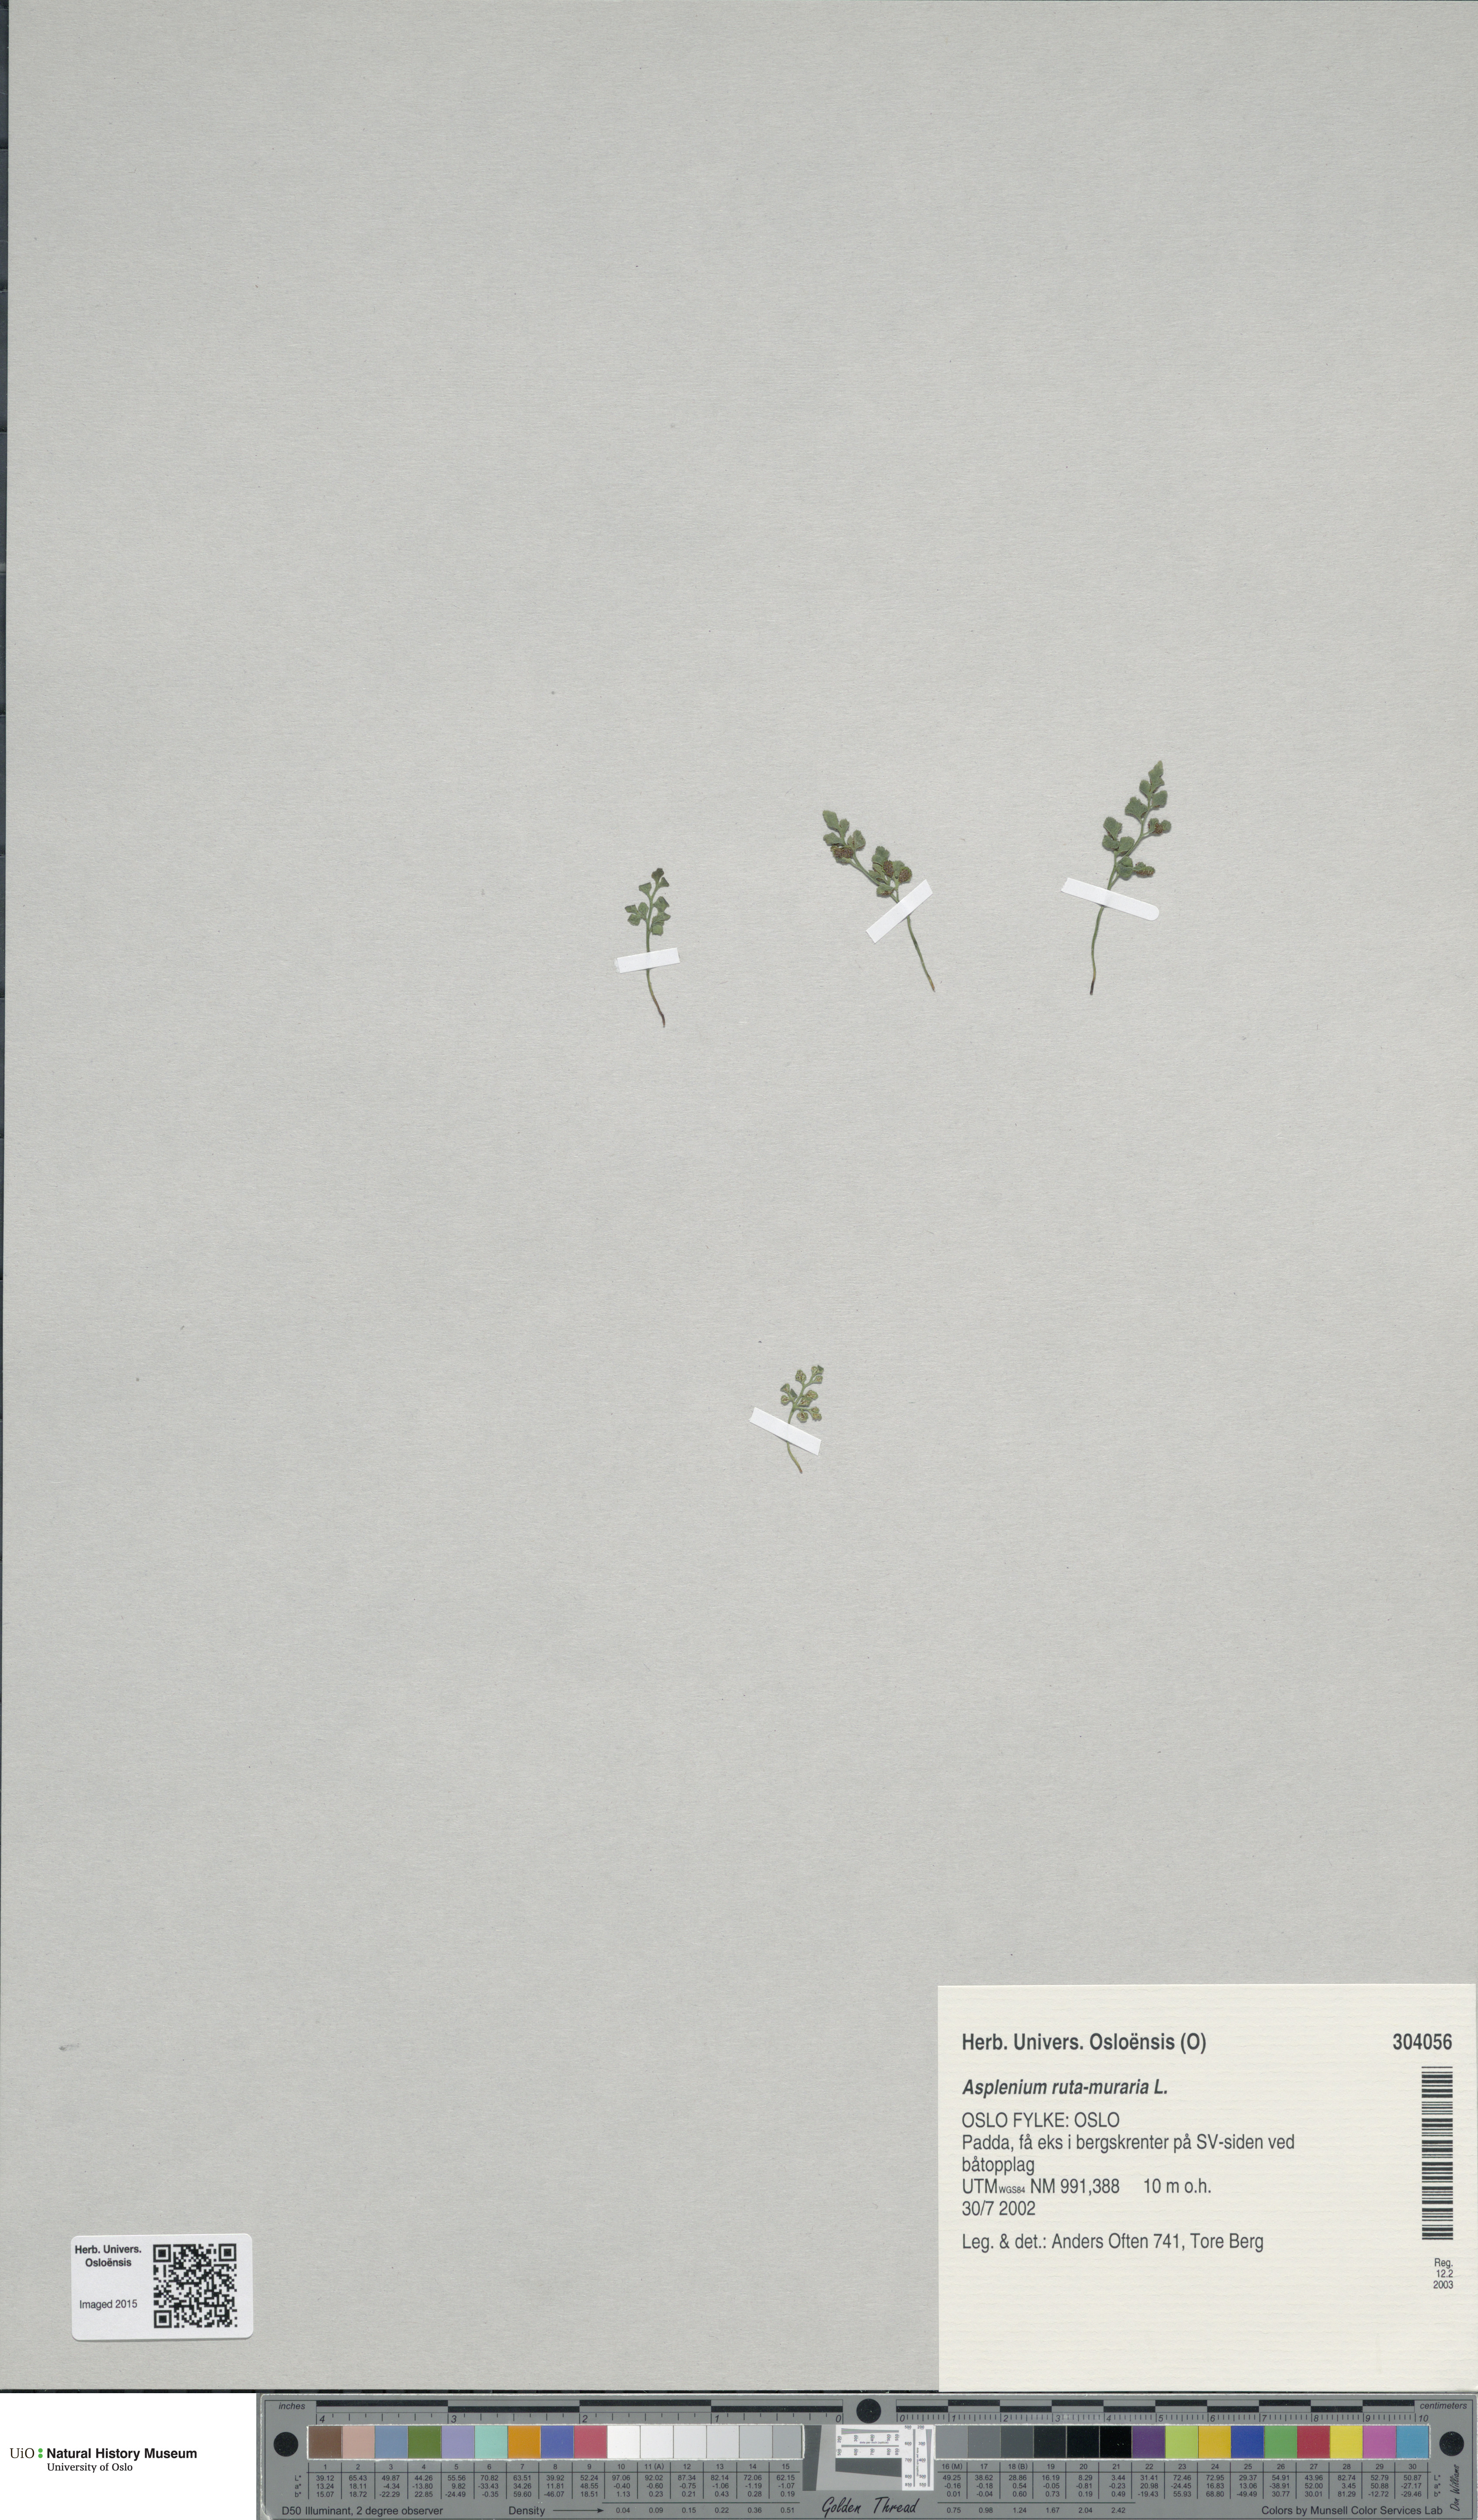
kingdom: Plantae
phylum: Tracheophyta
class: Polypodiopsida
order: Polypodiales
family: Aspleniaceae
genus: Asplenium
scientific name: Asplenium ruta-muraria
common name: Wall-rue
